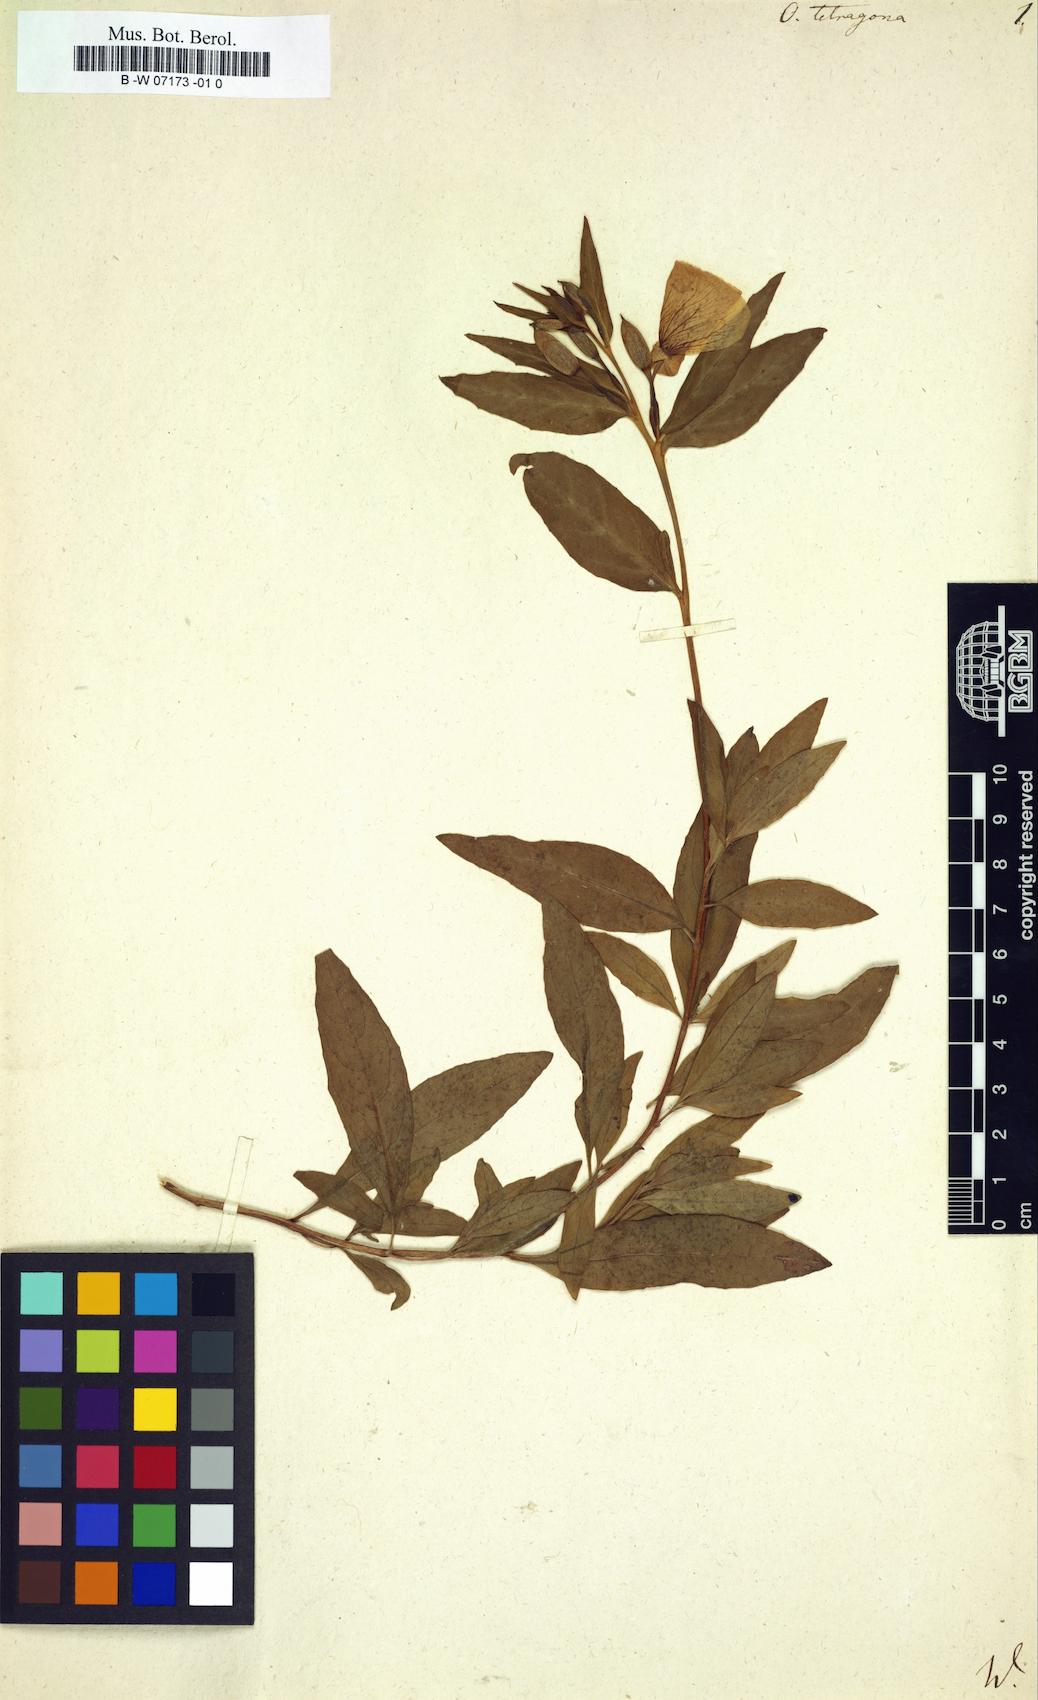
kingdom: Plantae
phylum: Tracheophyta
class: Magnoliopsida
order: Myrtales
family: Onagraceae
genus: Oenothera
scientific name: Oenothera tetragona
